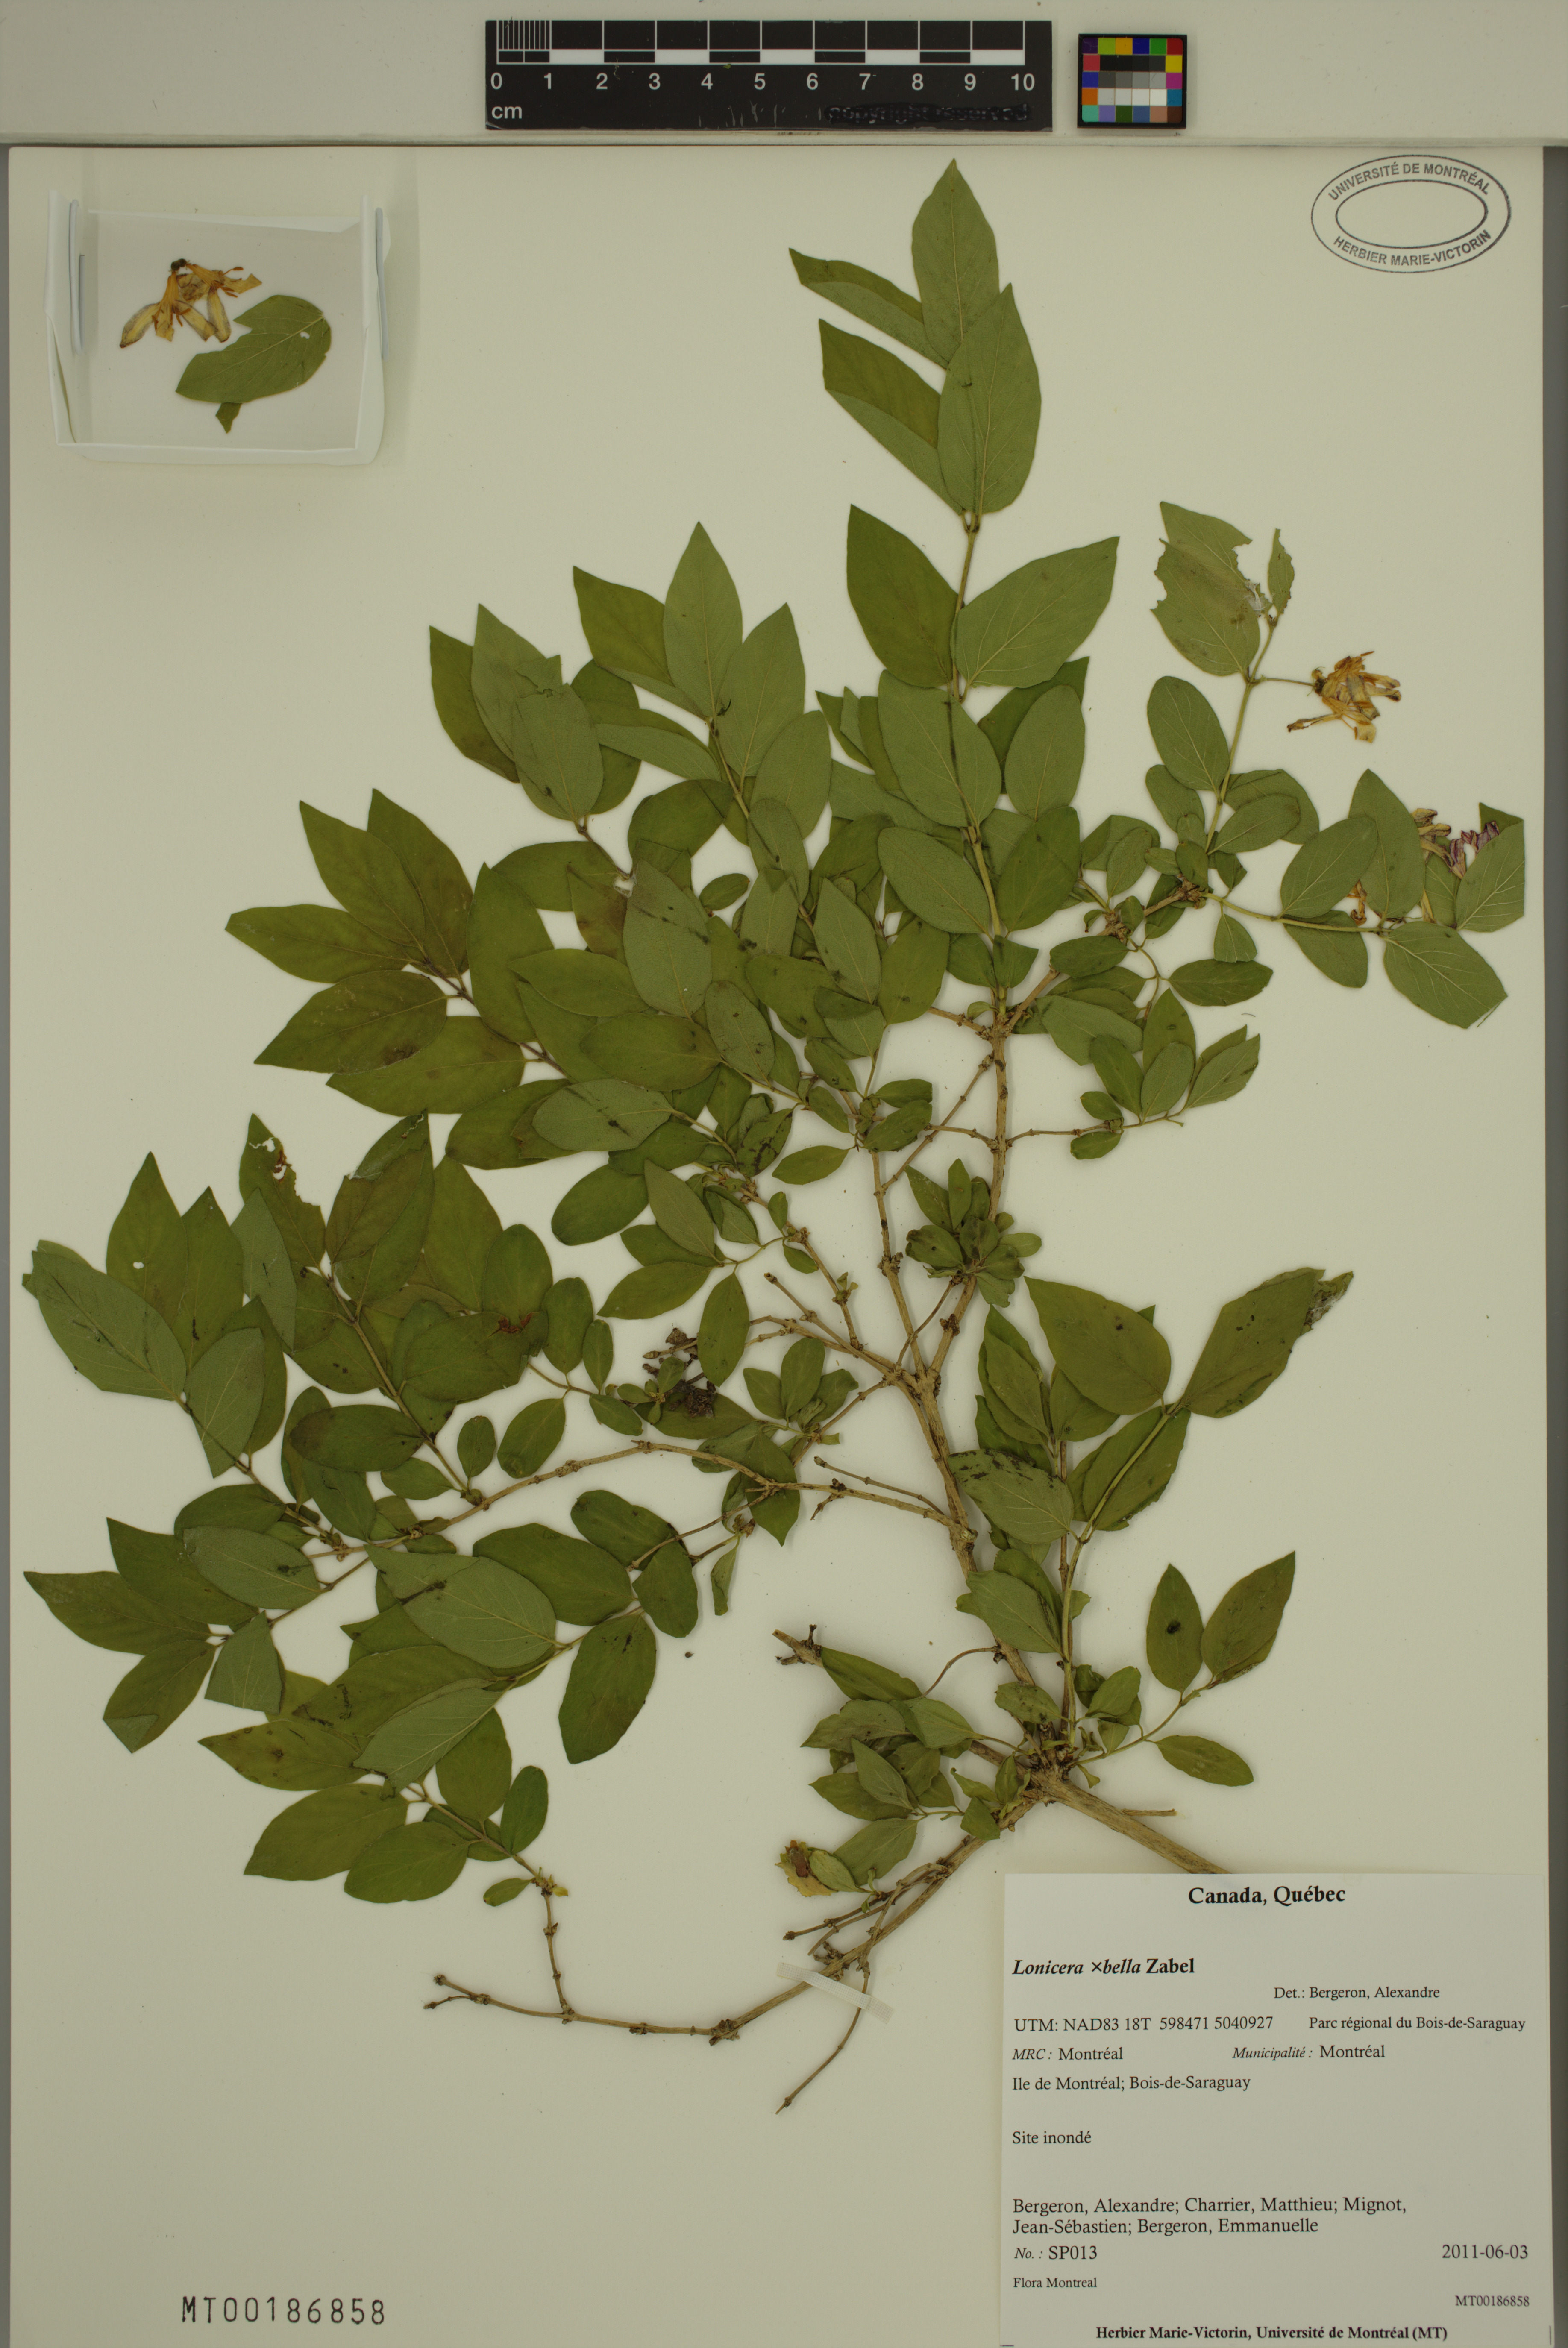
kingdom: Plantae
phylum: Tracheophyta
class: Magnoliopsida
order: Dipsacales
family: Caprifoliaceae
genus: Lonicera
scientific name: Lonicera bella
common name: Bell's honeysuckle
